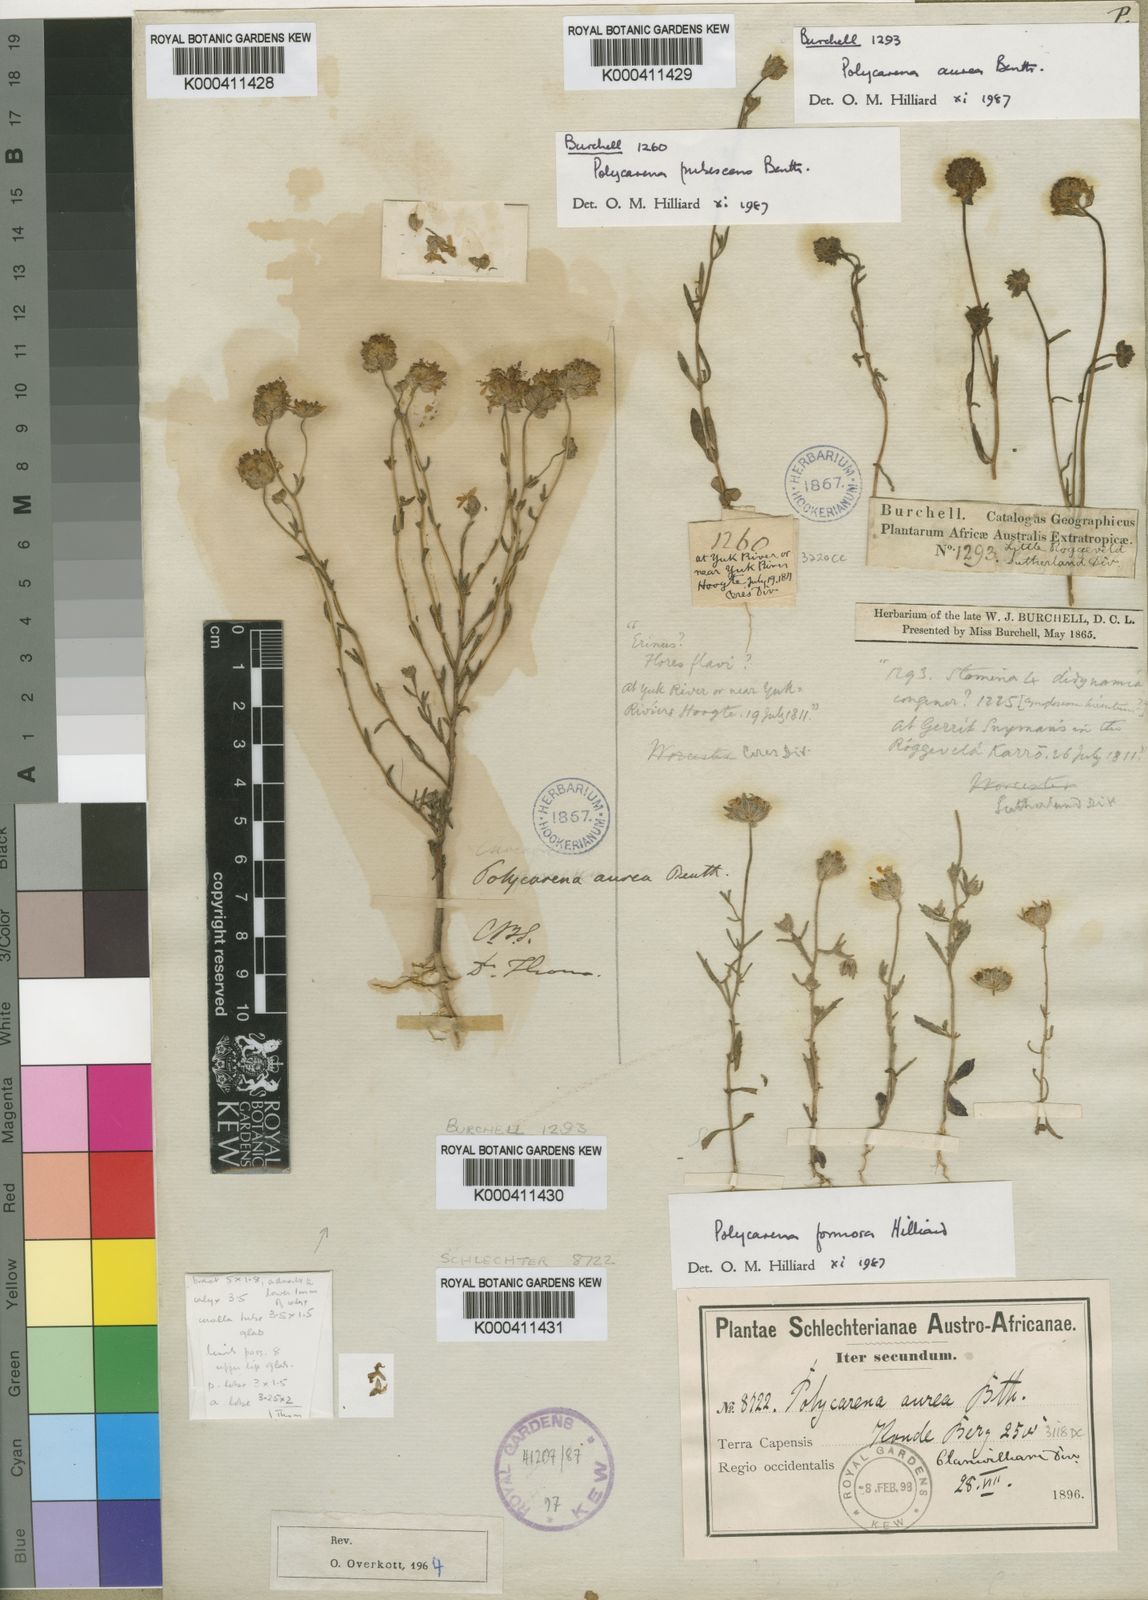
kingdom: Plantae
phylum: Tracheophyta
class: Magnoliopsida
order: Lamiales
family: Scrophulariaceae
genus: Polycarena
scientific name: Polycarena aurea
